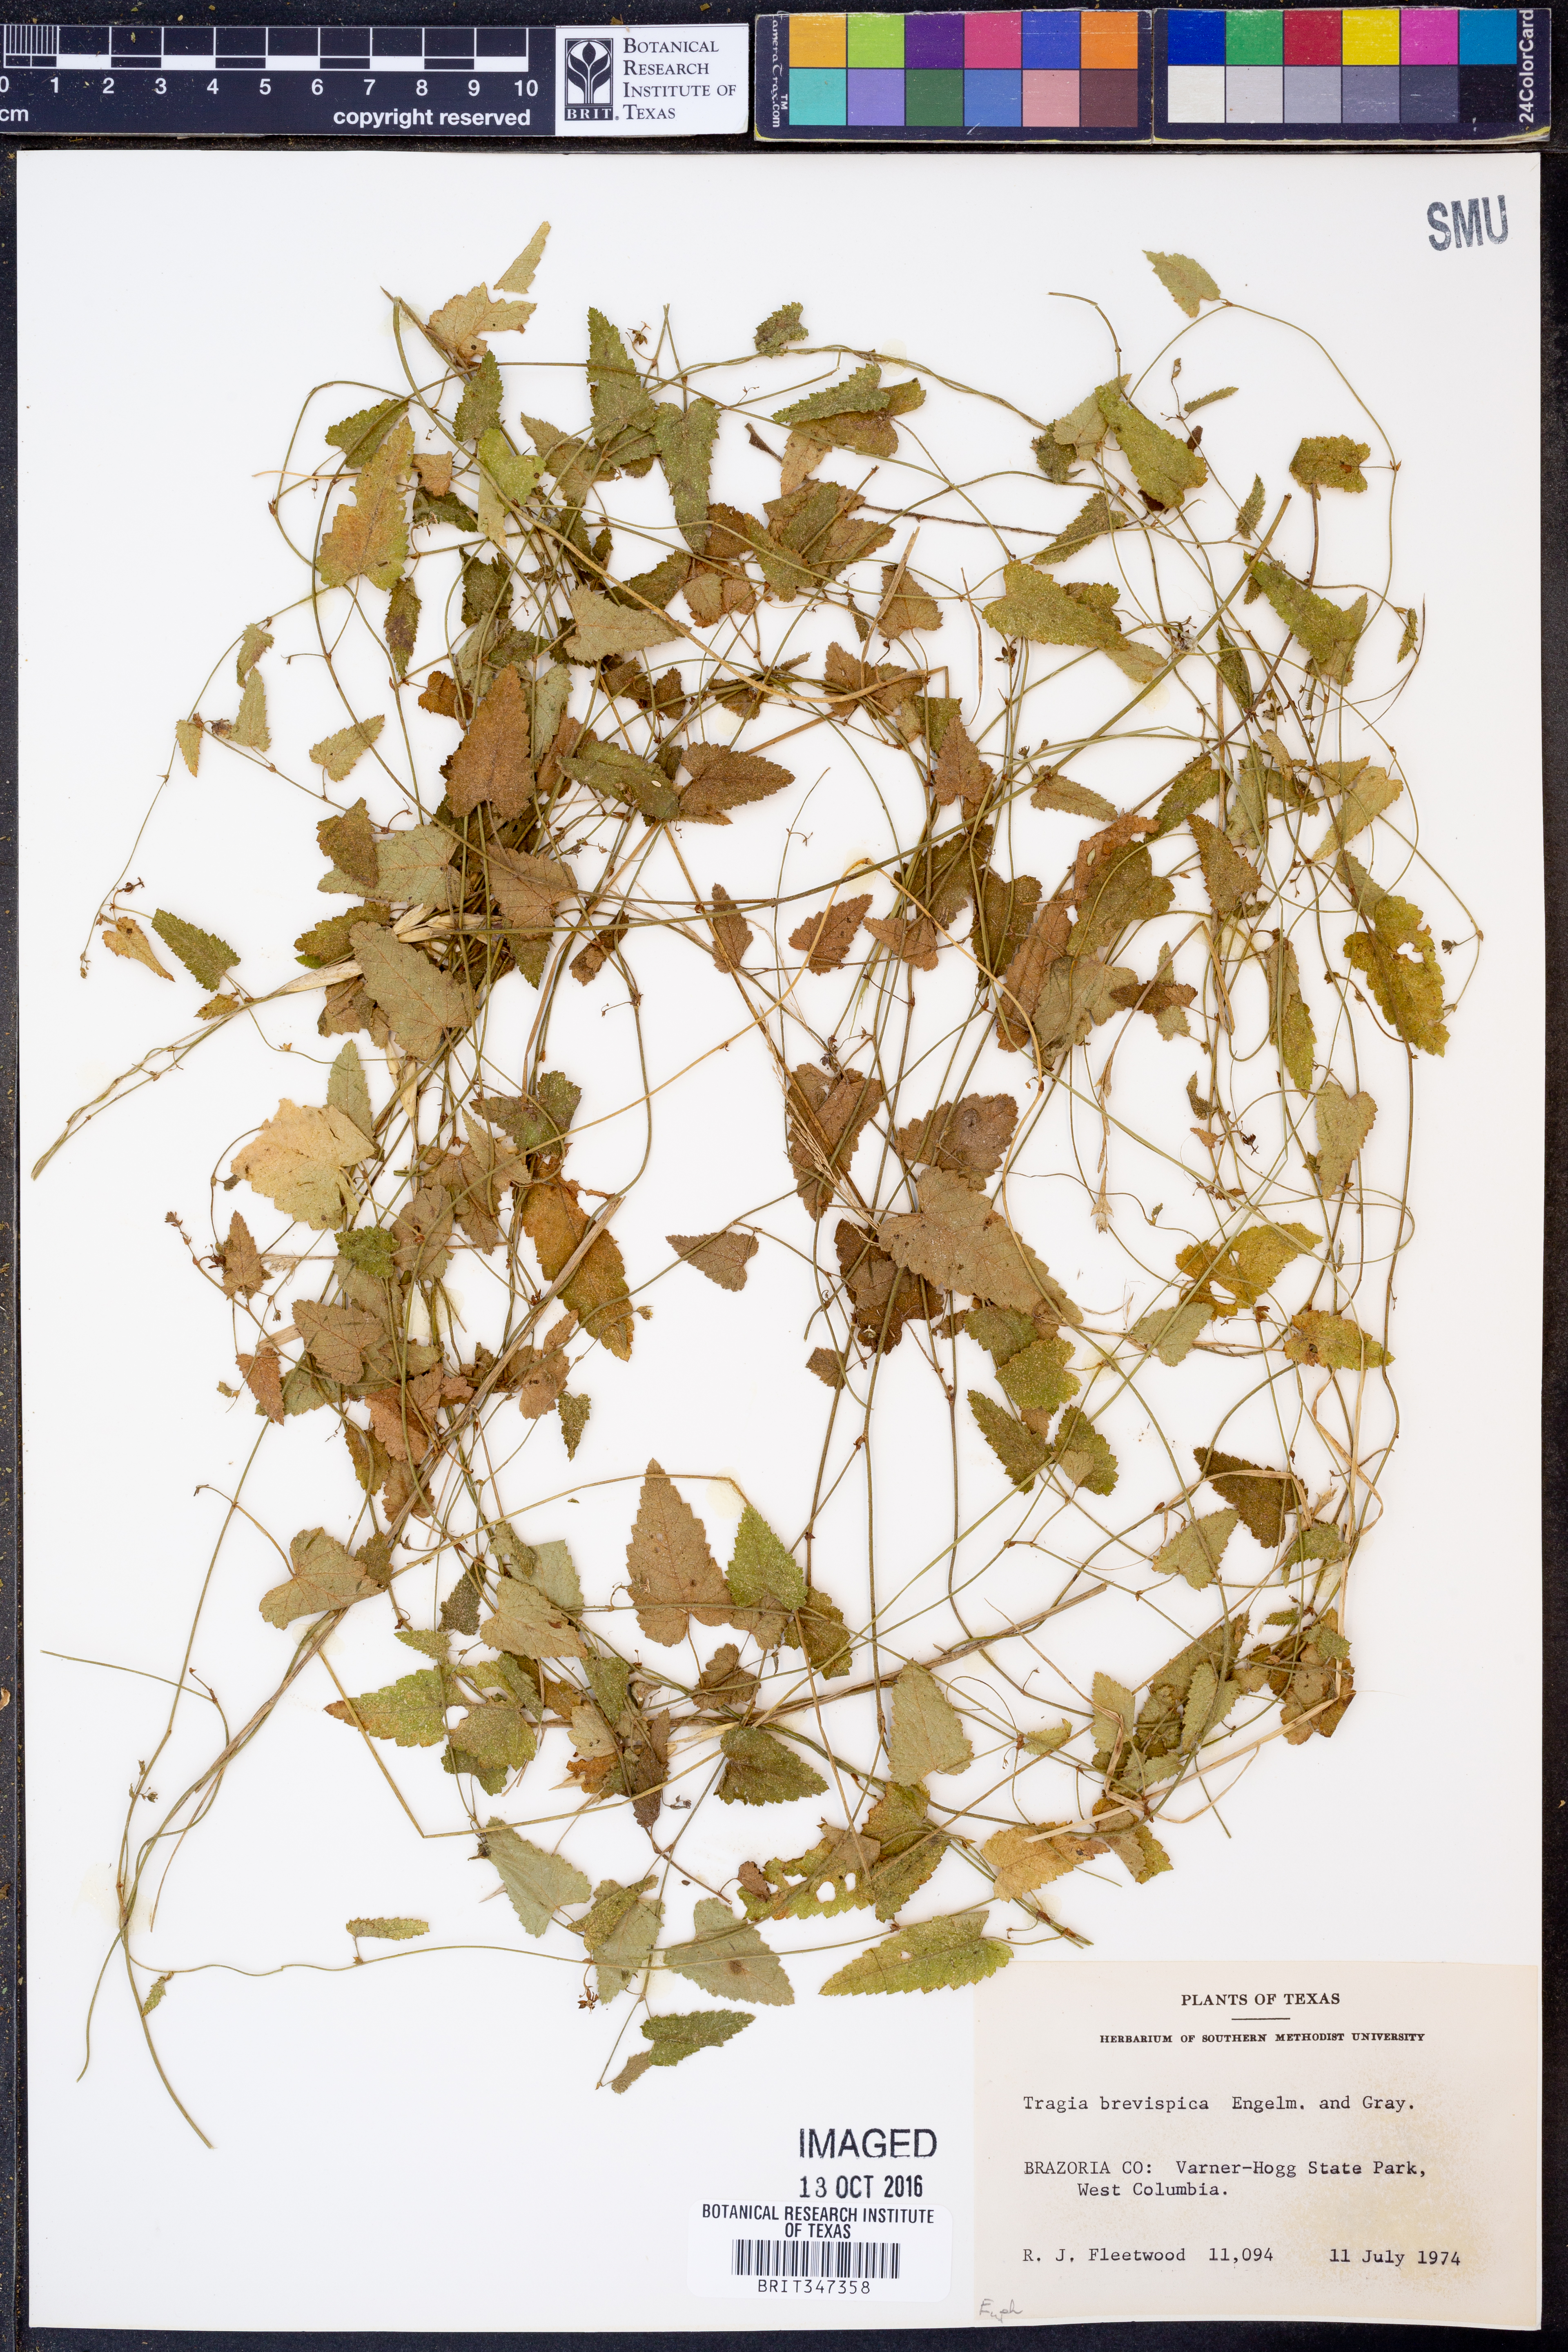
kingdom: Plantae
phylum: Tracheophyta
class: Magnoliopsida
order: Malpighiales
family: Euphorbiaceae
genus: Tragia
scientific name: Tragia brevispica
